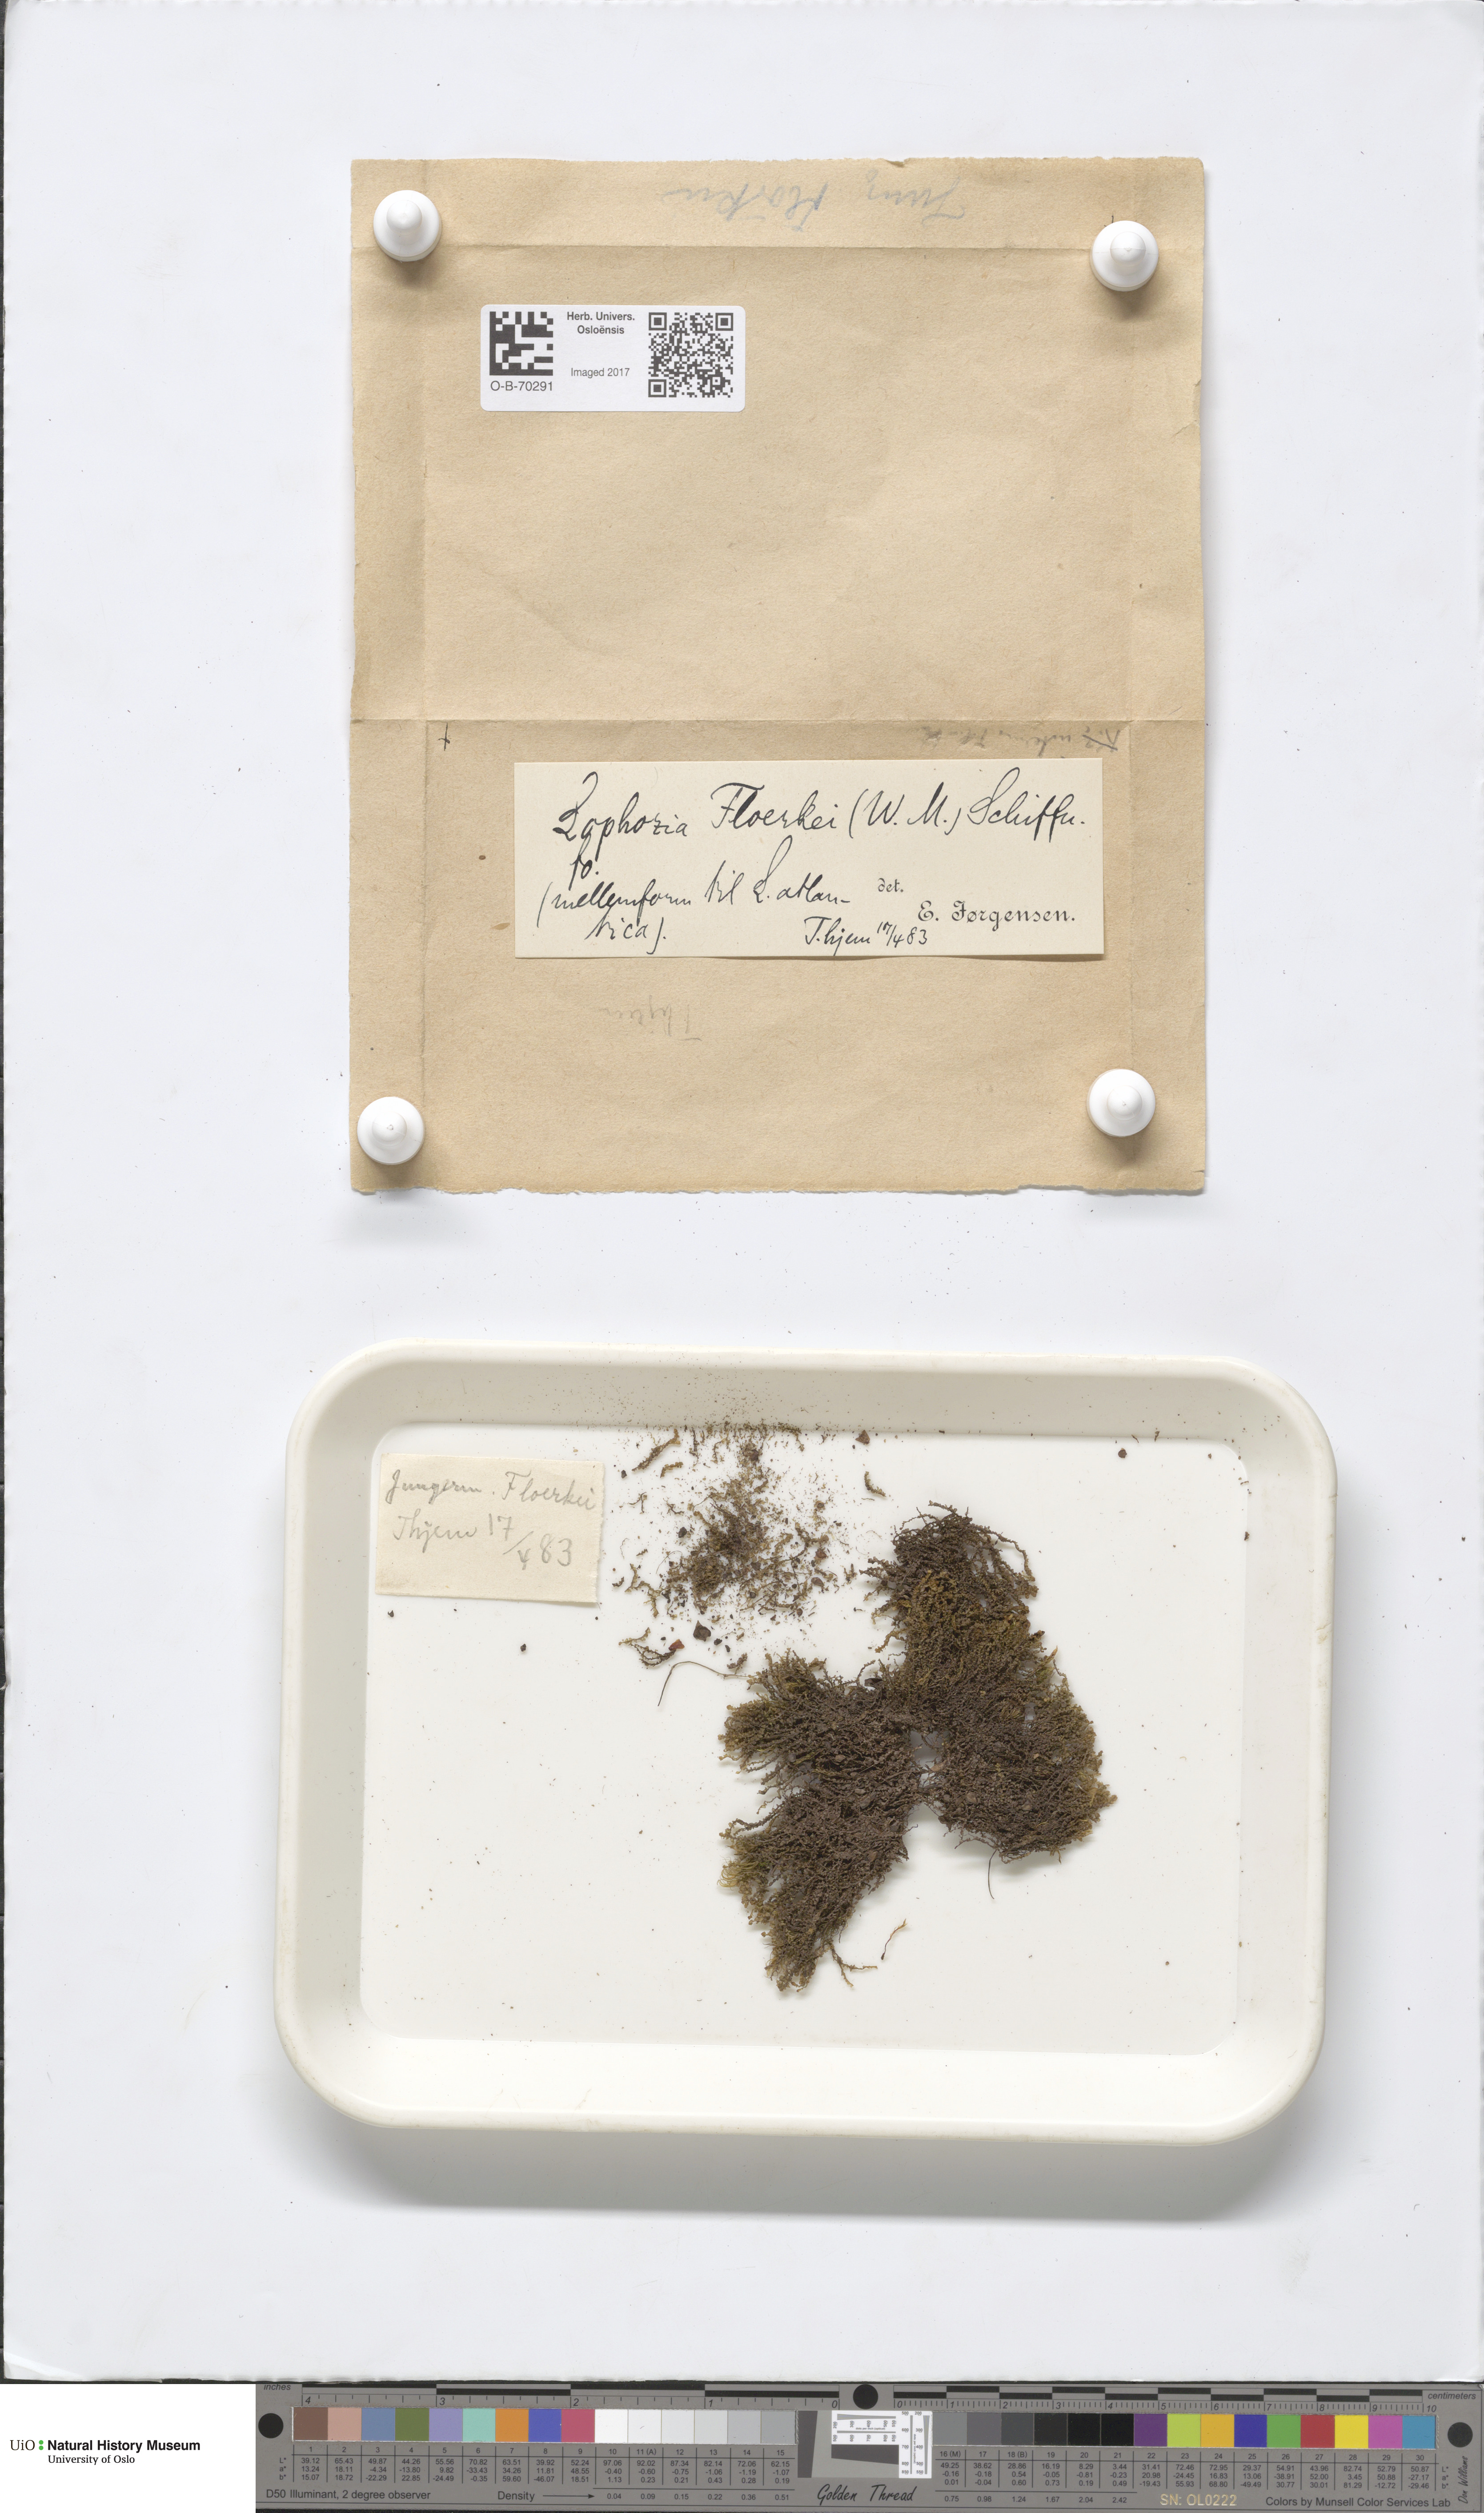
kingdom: Plantae
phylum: Marchantiophyta
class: Jungermanniopsida
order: Jungermanniales
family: Anastrophyllaceae
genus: Neoorthocaulis
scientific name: Neoorthocaulis floerkei
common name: Floerke's barbilophozia
